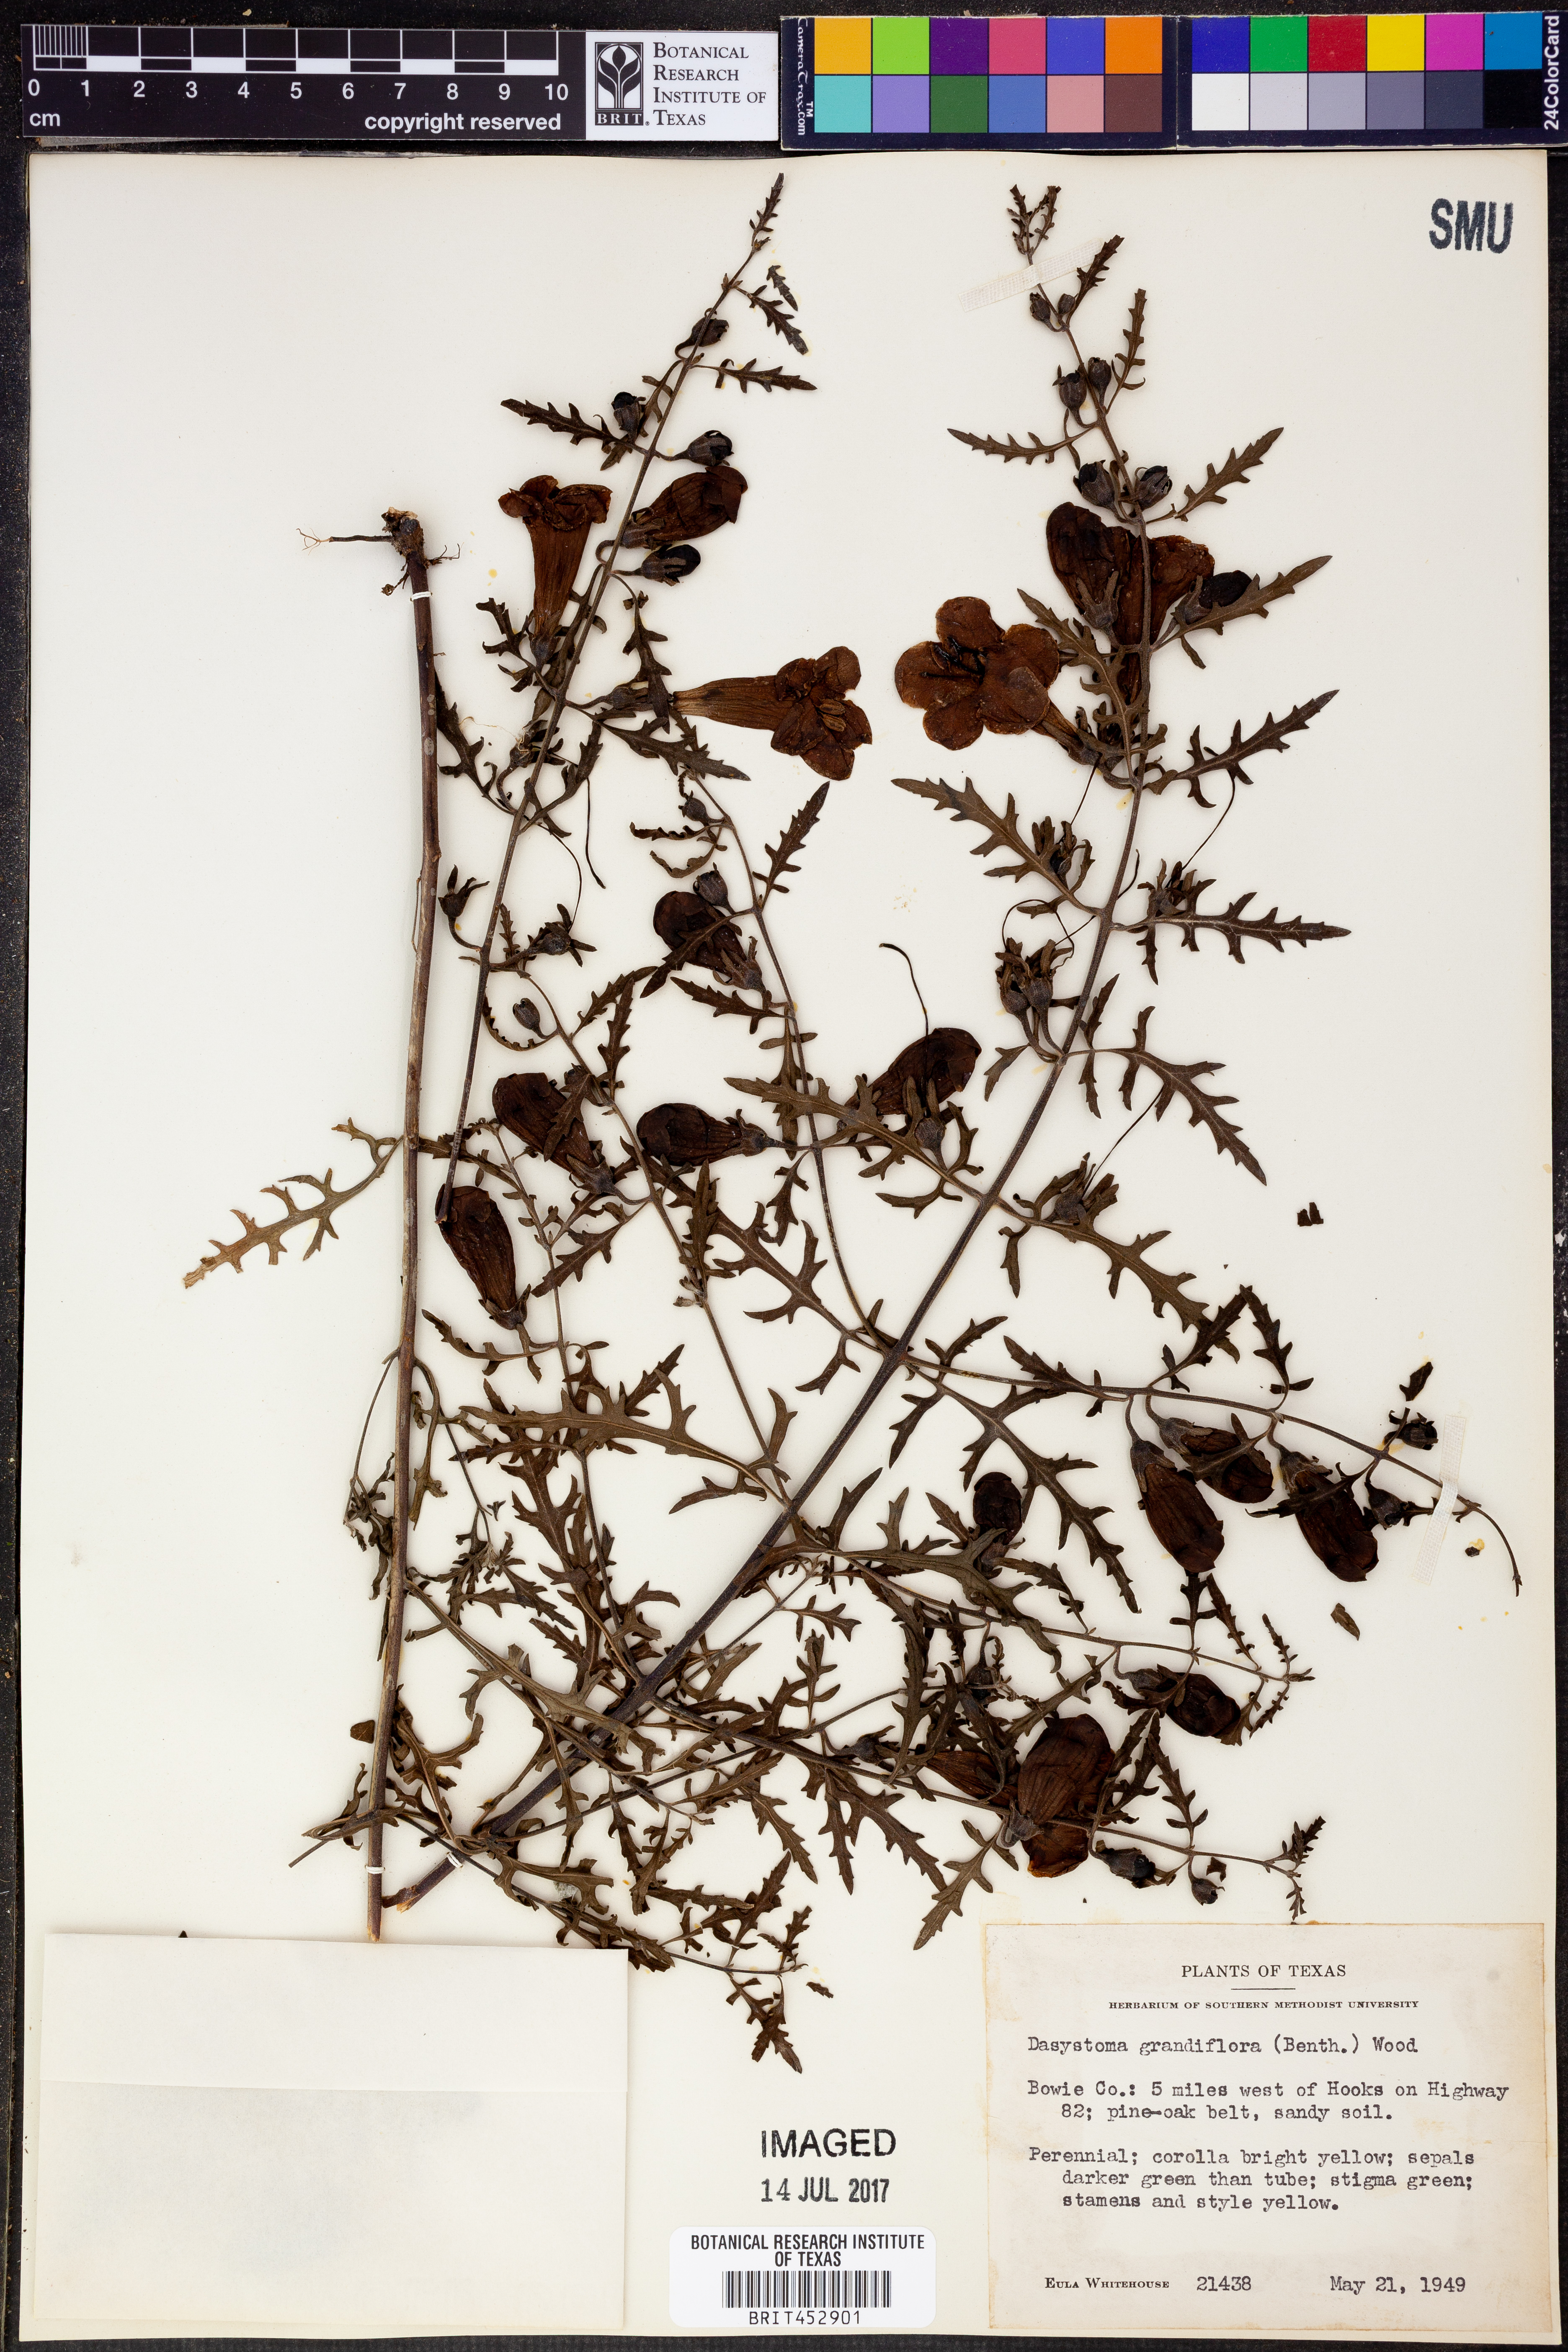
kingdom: Plantae
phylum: Tracheophyta
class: Magnoliopsida
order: Lamiales
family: Orobanchaceae
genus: Aureolaria
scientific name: Aureolaria grandiflora
